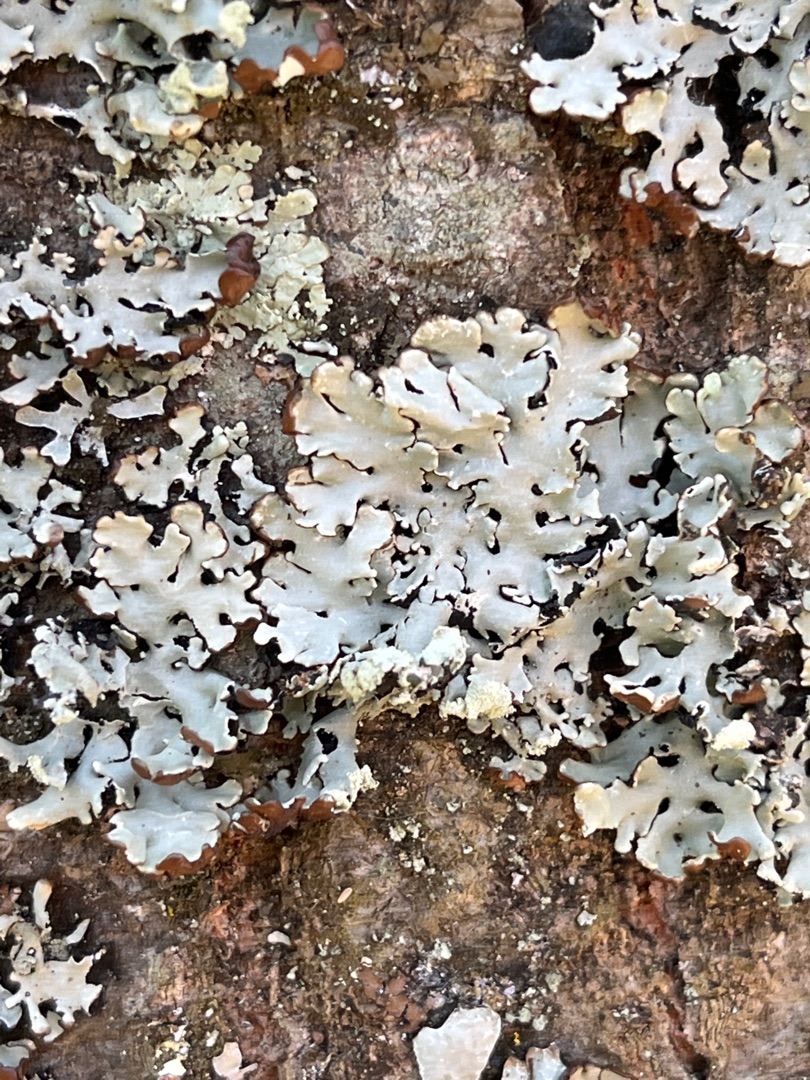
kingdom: Fungi
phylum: Ascomycota
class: Lecanoromycetes
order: Lecanorales
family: Parmeliaceae
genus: Hypogymnia
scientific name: Hypogymnia physodes
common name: Almindelig kvistlav
